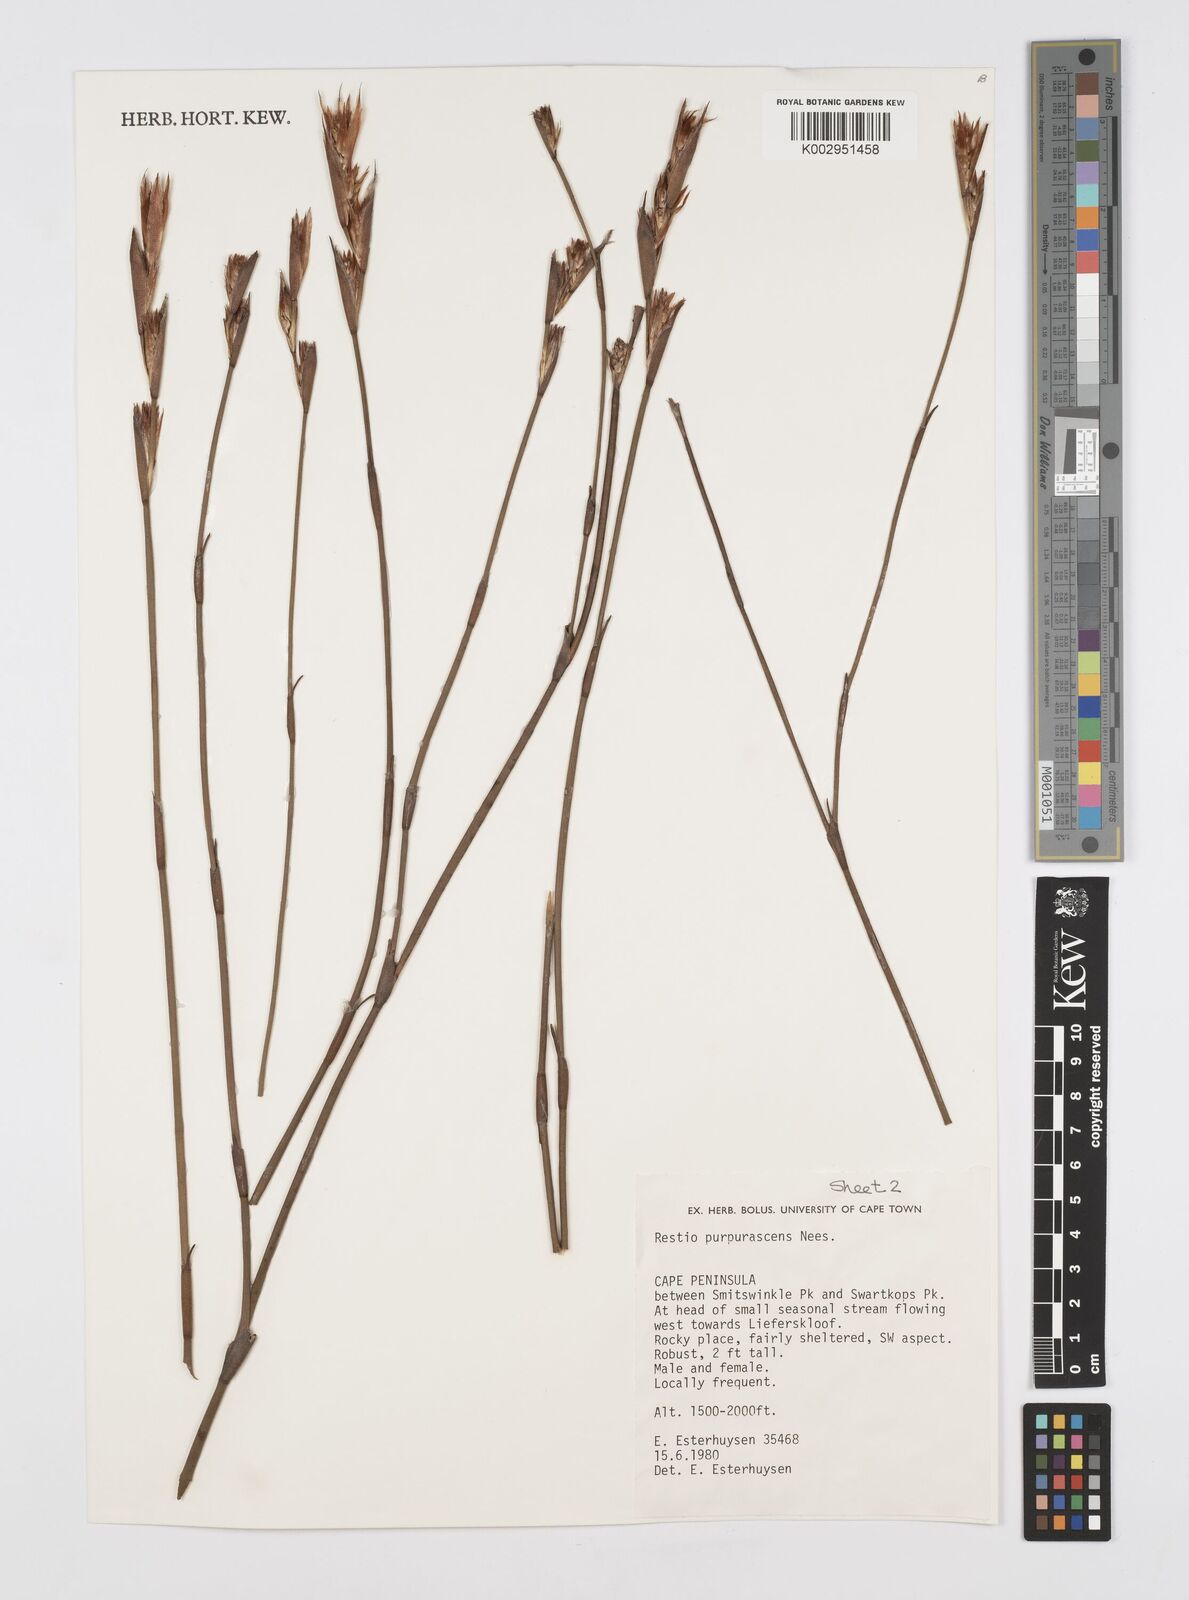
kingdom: Plantae
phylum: Tracheophyta
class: Liliopsida
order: Poales
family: Restionaceae
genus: Restio
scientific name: Restio purpurascens
